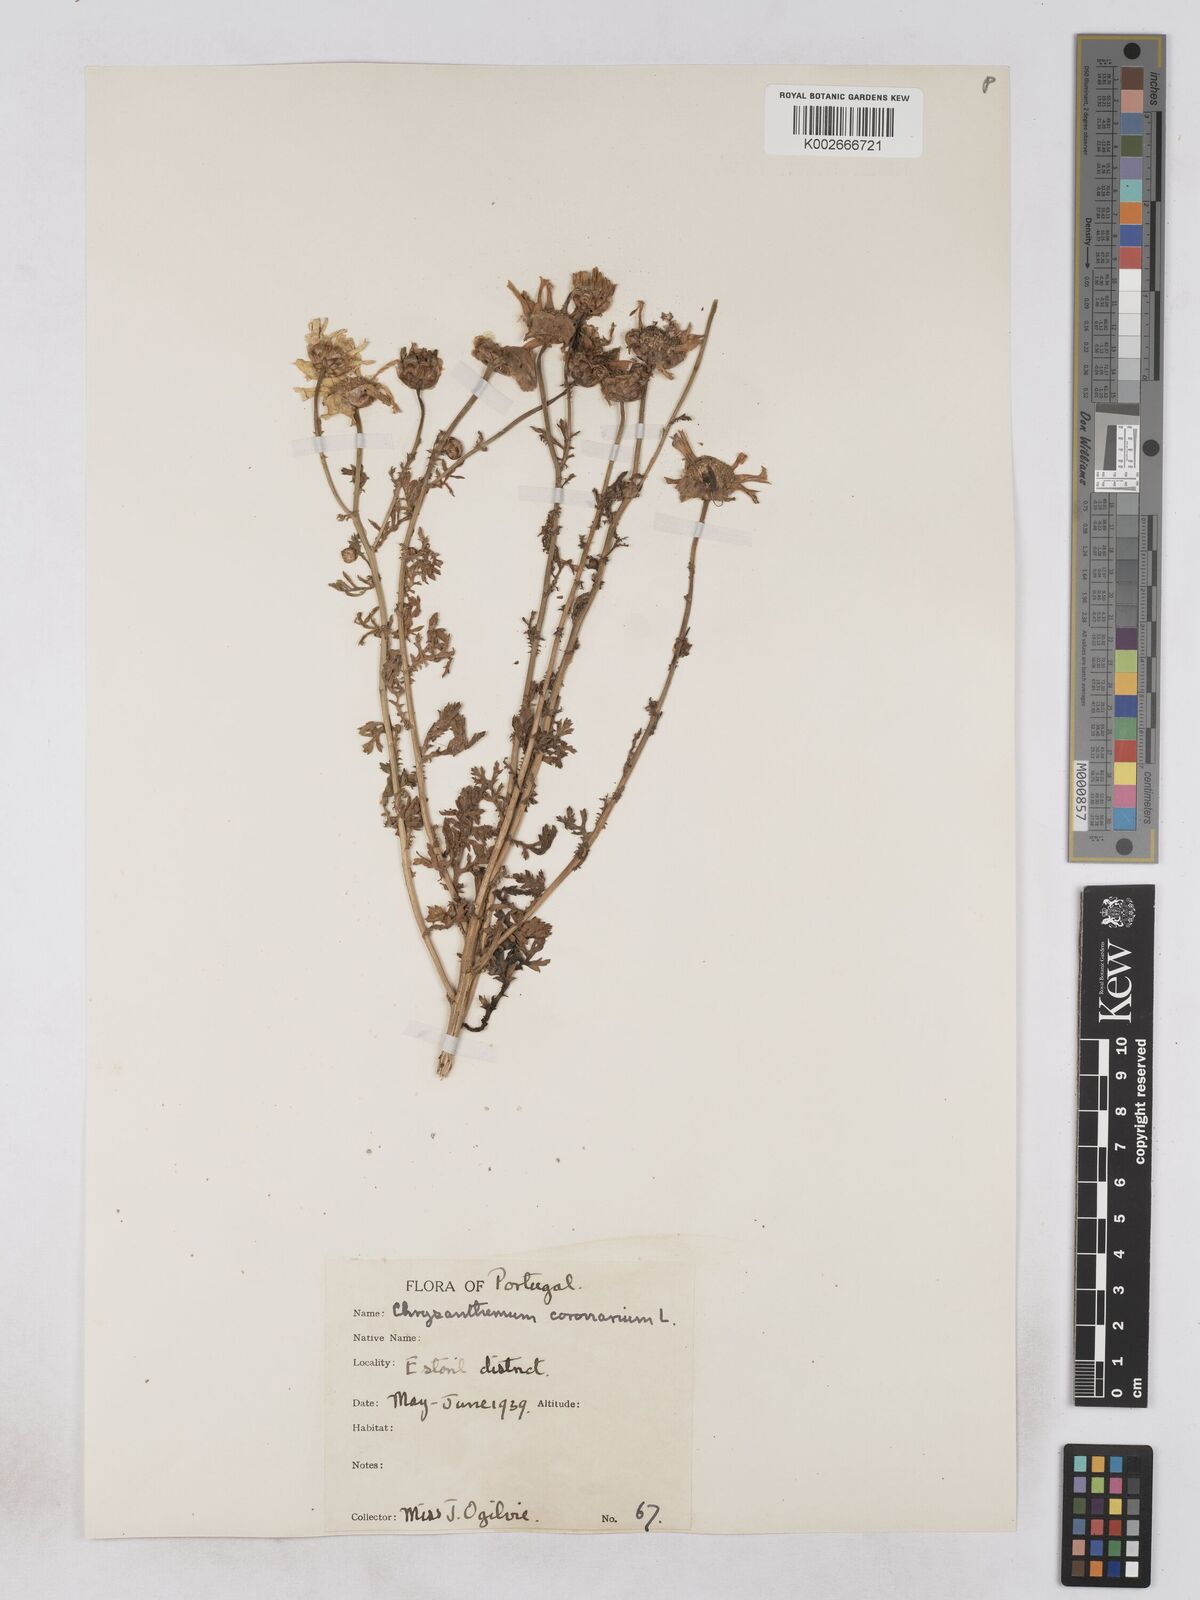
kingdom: Plantae
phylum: Tracheophyta
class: Magnoliopsida
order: Asterales
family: Asteraceae
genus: Glebionis
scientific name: Glebionis coronaria
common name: Crowndaisy
